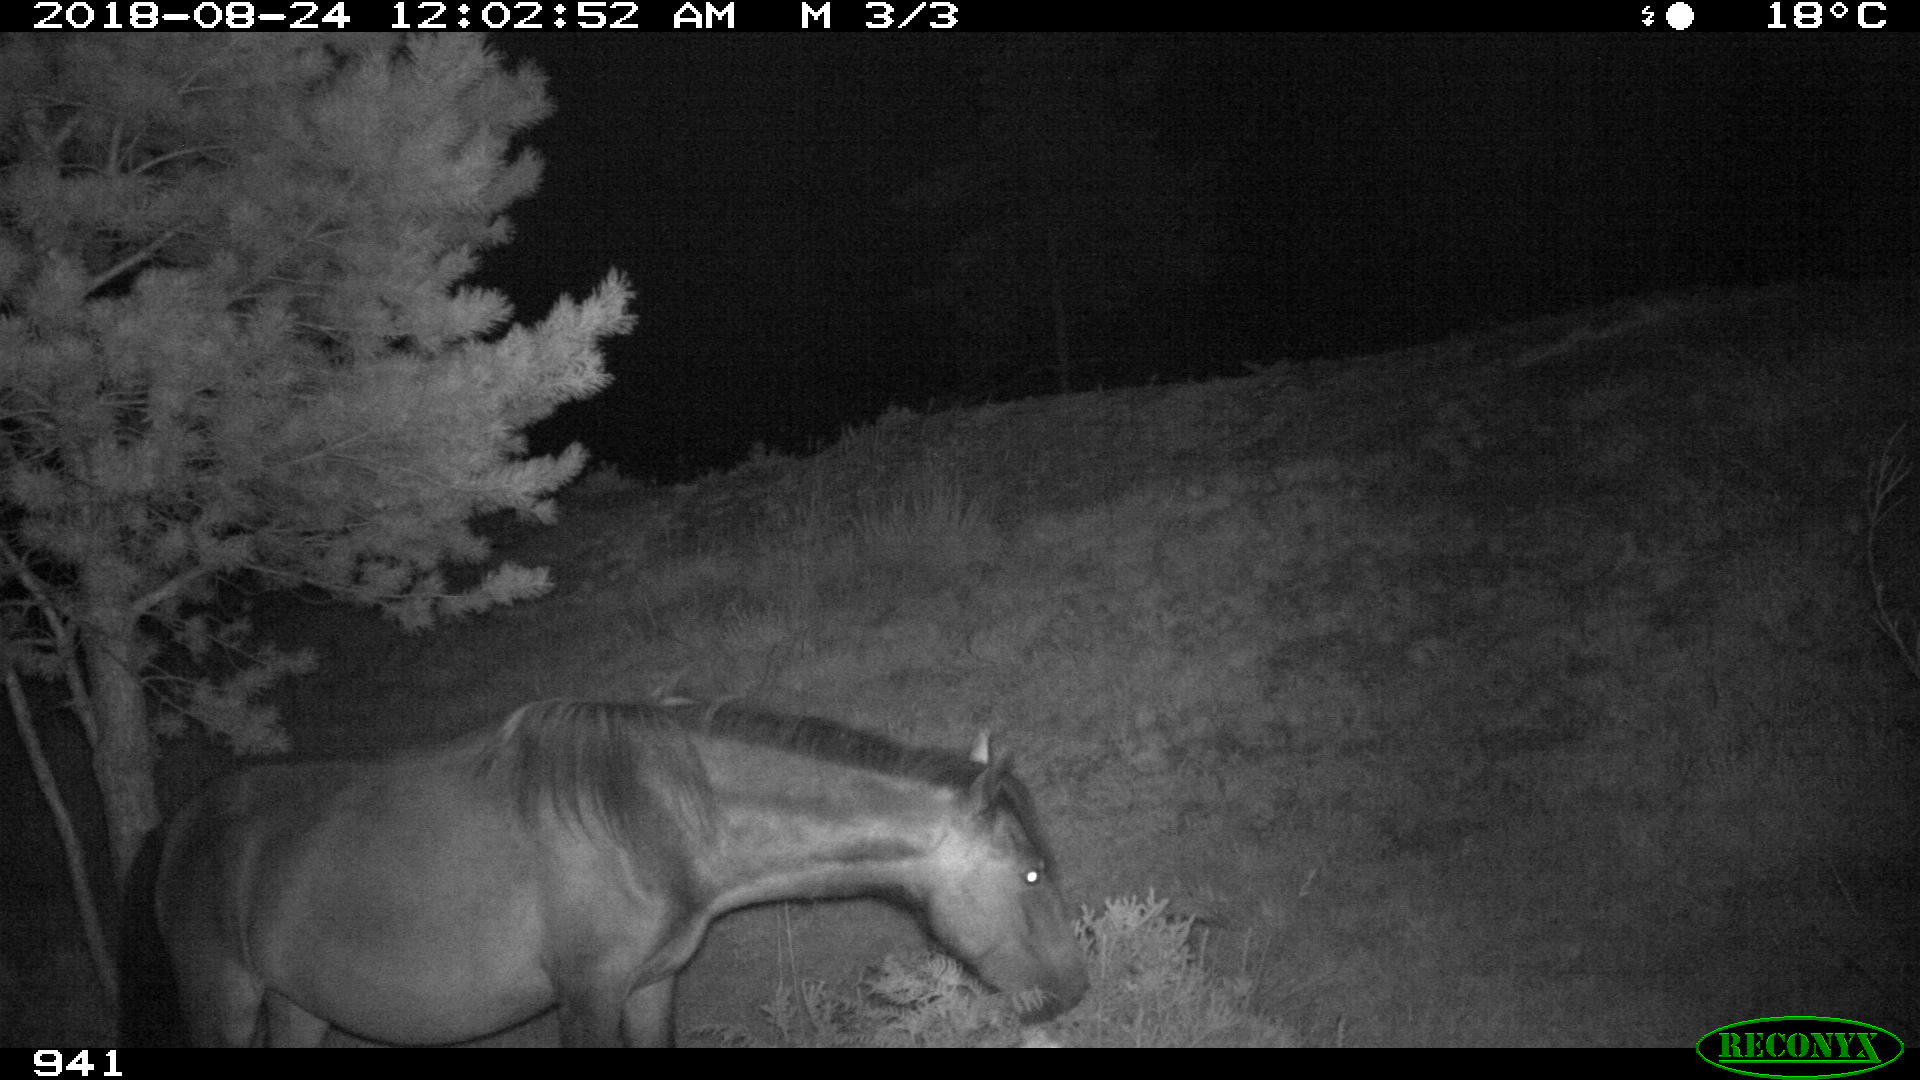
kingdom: Animalia
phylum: Chordata
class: Mammalia
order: Perissodactyla
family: Equidae
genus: Equus
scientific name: Equus caballus
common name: Horse
